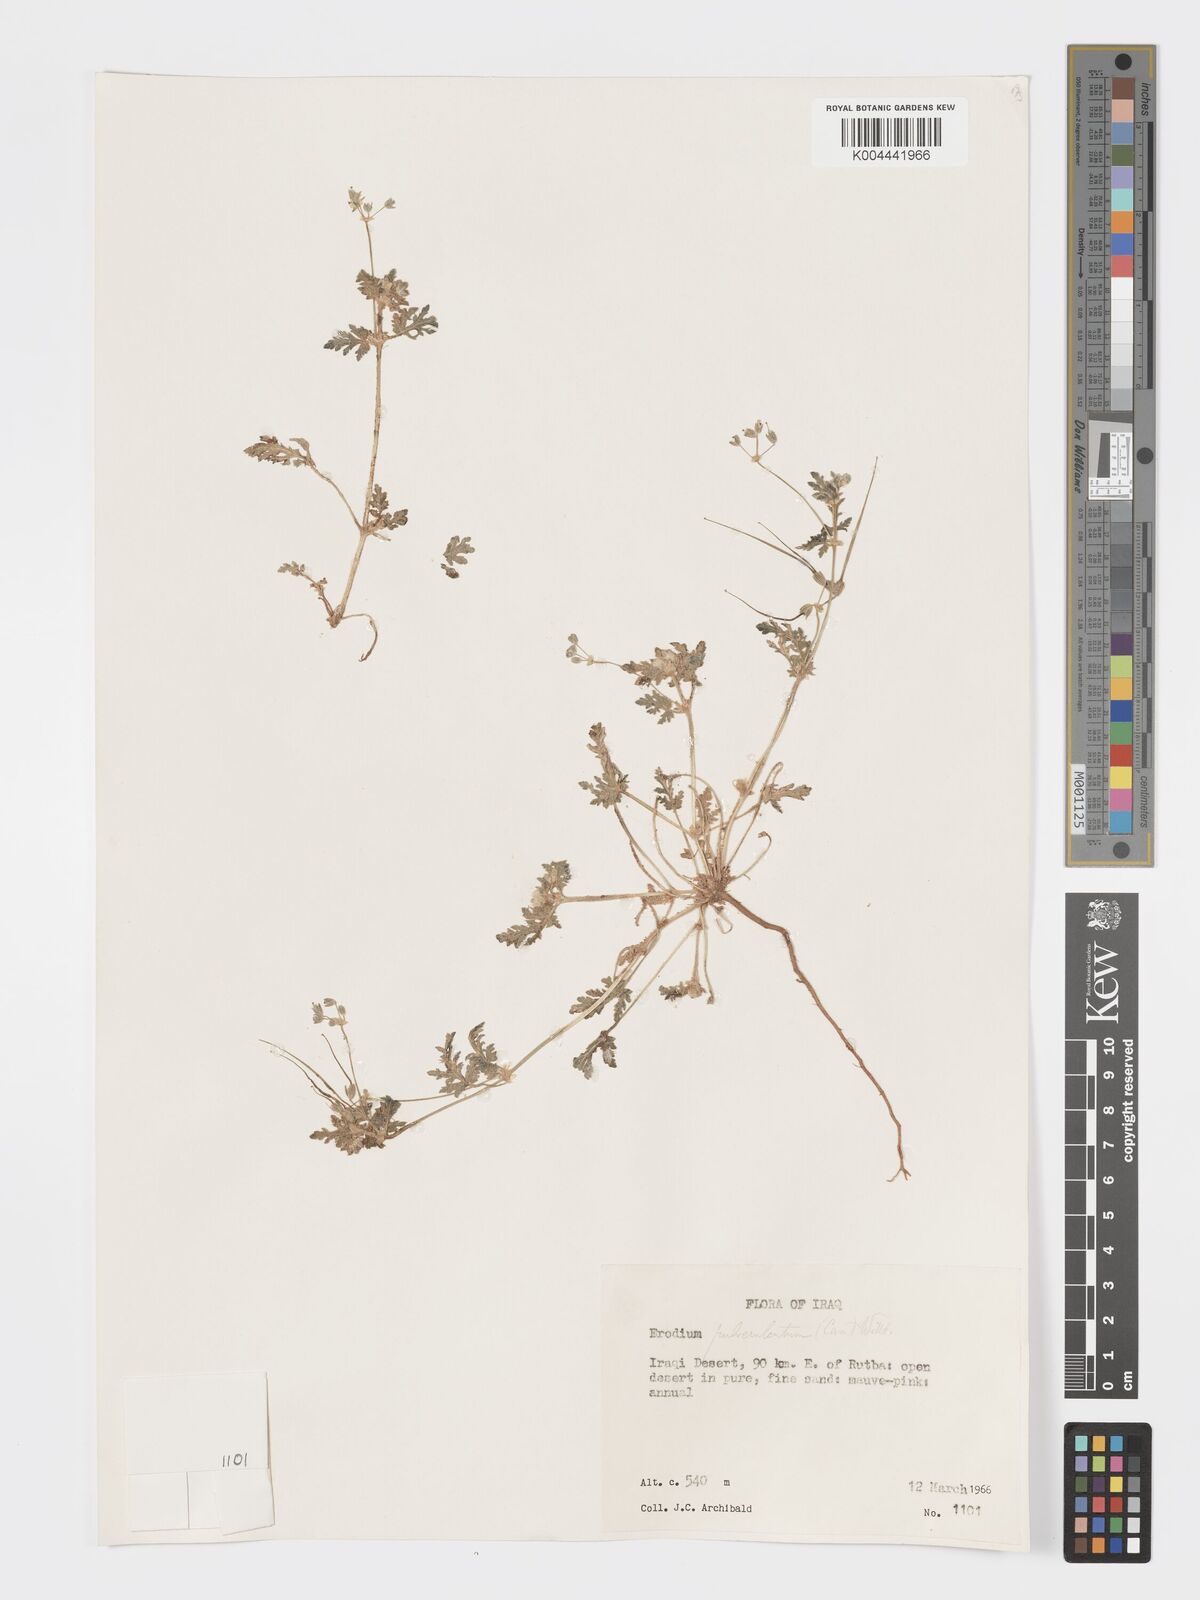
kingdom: Plantae
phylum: Tracheophyta
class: Magnoliopsida
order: Geraniales
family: Geraniaceae
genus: Erodium
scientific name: Erodium laciniatum
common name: Cutleaf stork's bill
